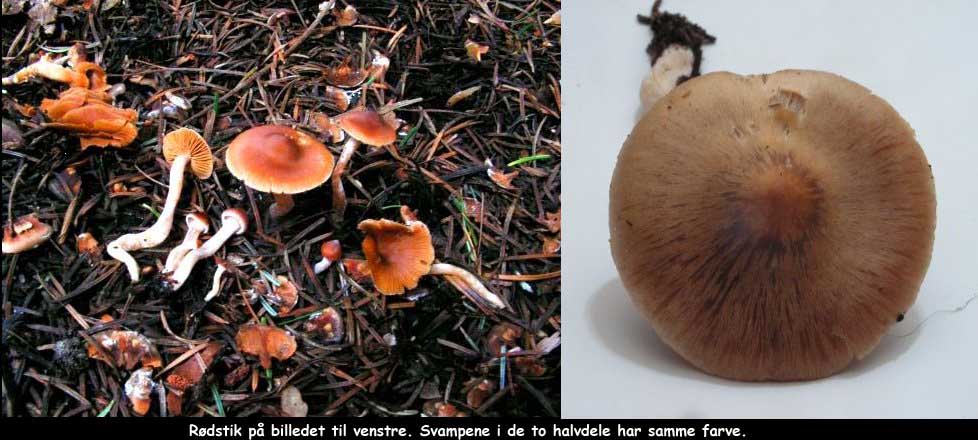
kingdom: Fungi
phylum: Basidiomycota
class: Agaricomycetes
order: Agaricales
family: Cortinariaceae
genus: Cortinarius
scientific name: Cortinarius
